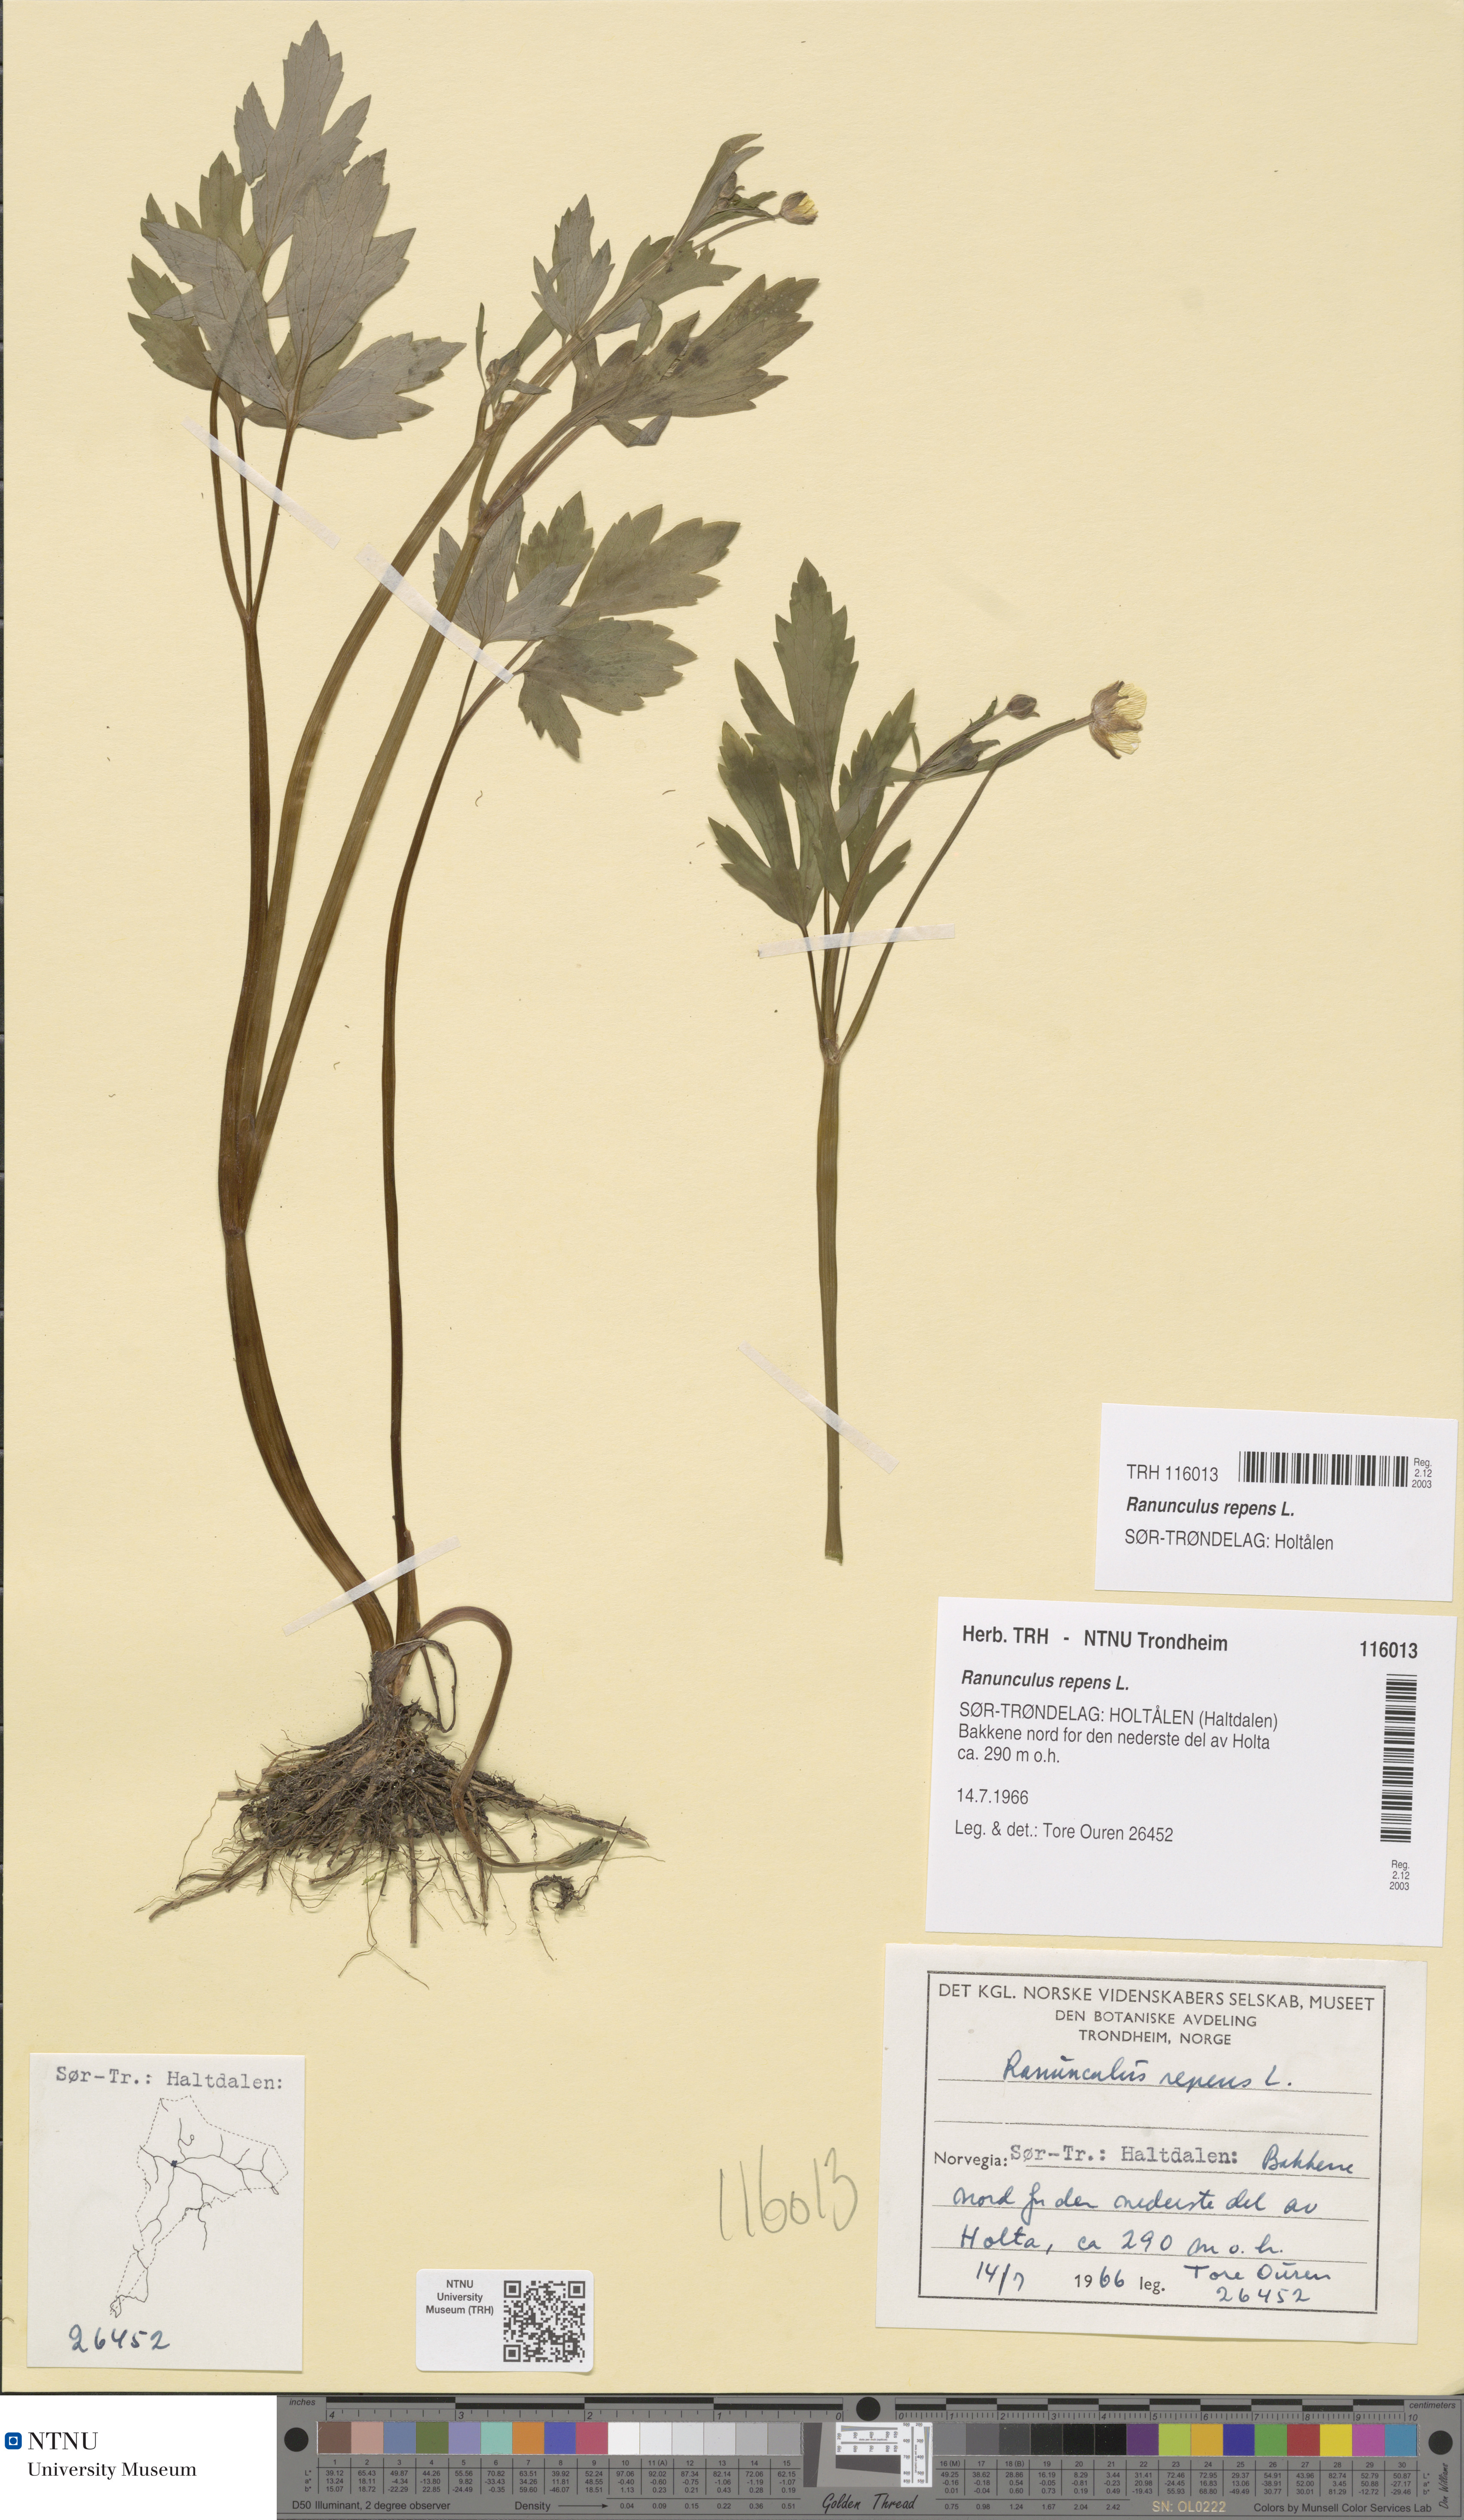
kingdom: Plantae
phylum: Tracheophyta
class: Magnoliopsida
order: Ranunculales
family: Ranunculaceae
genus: Ranunculus
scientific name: Ranunculus repens
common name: Creeping buttercup
